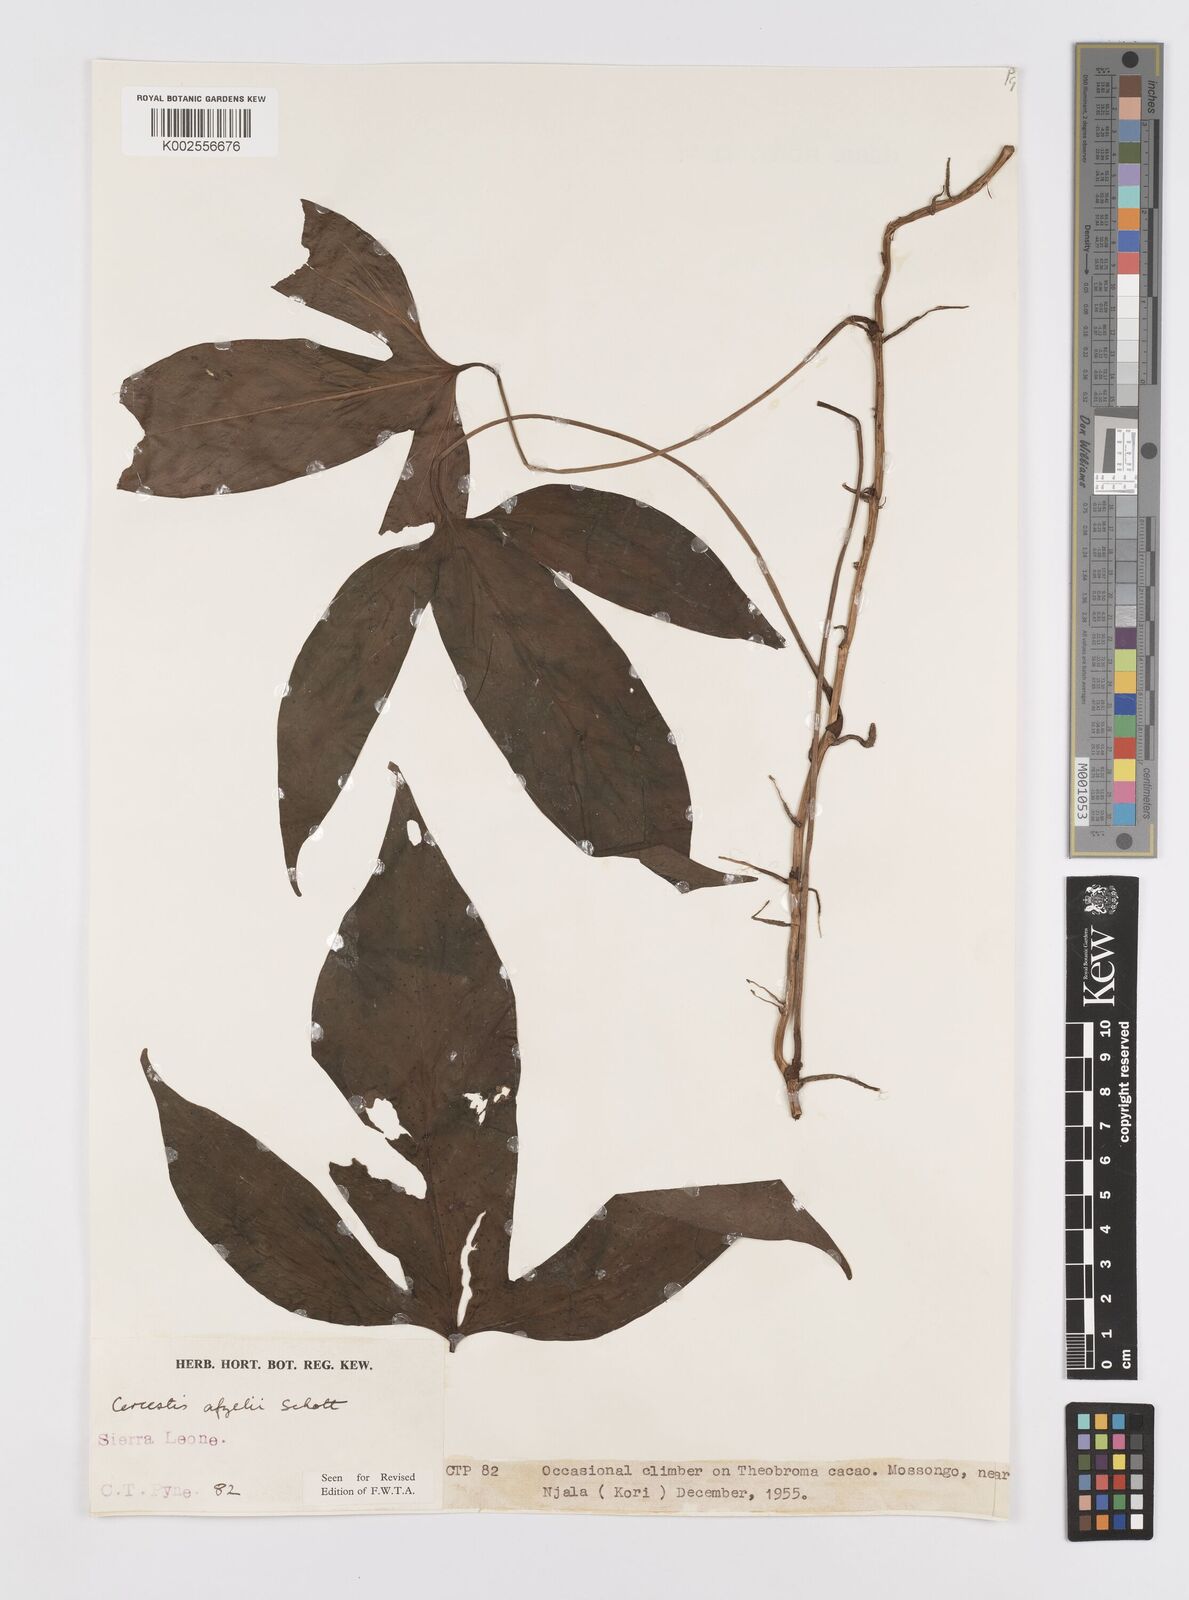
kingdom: Plantae
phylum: Tracheophyta
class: Liliopsida
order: Alismatales
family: Araceae
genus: Cercestis
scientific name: Cercestis afzelii
